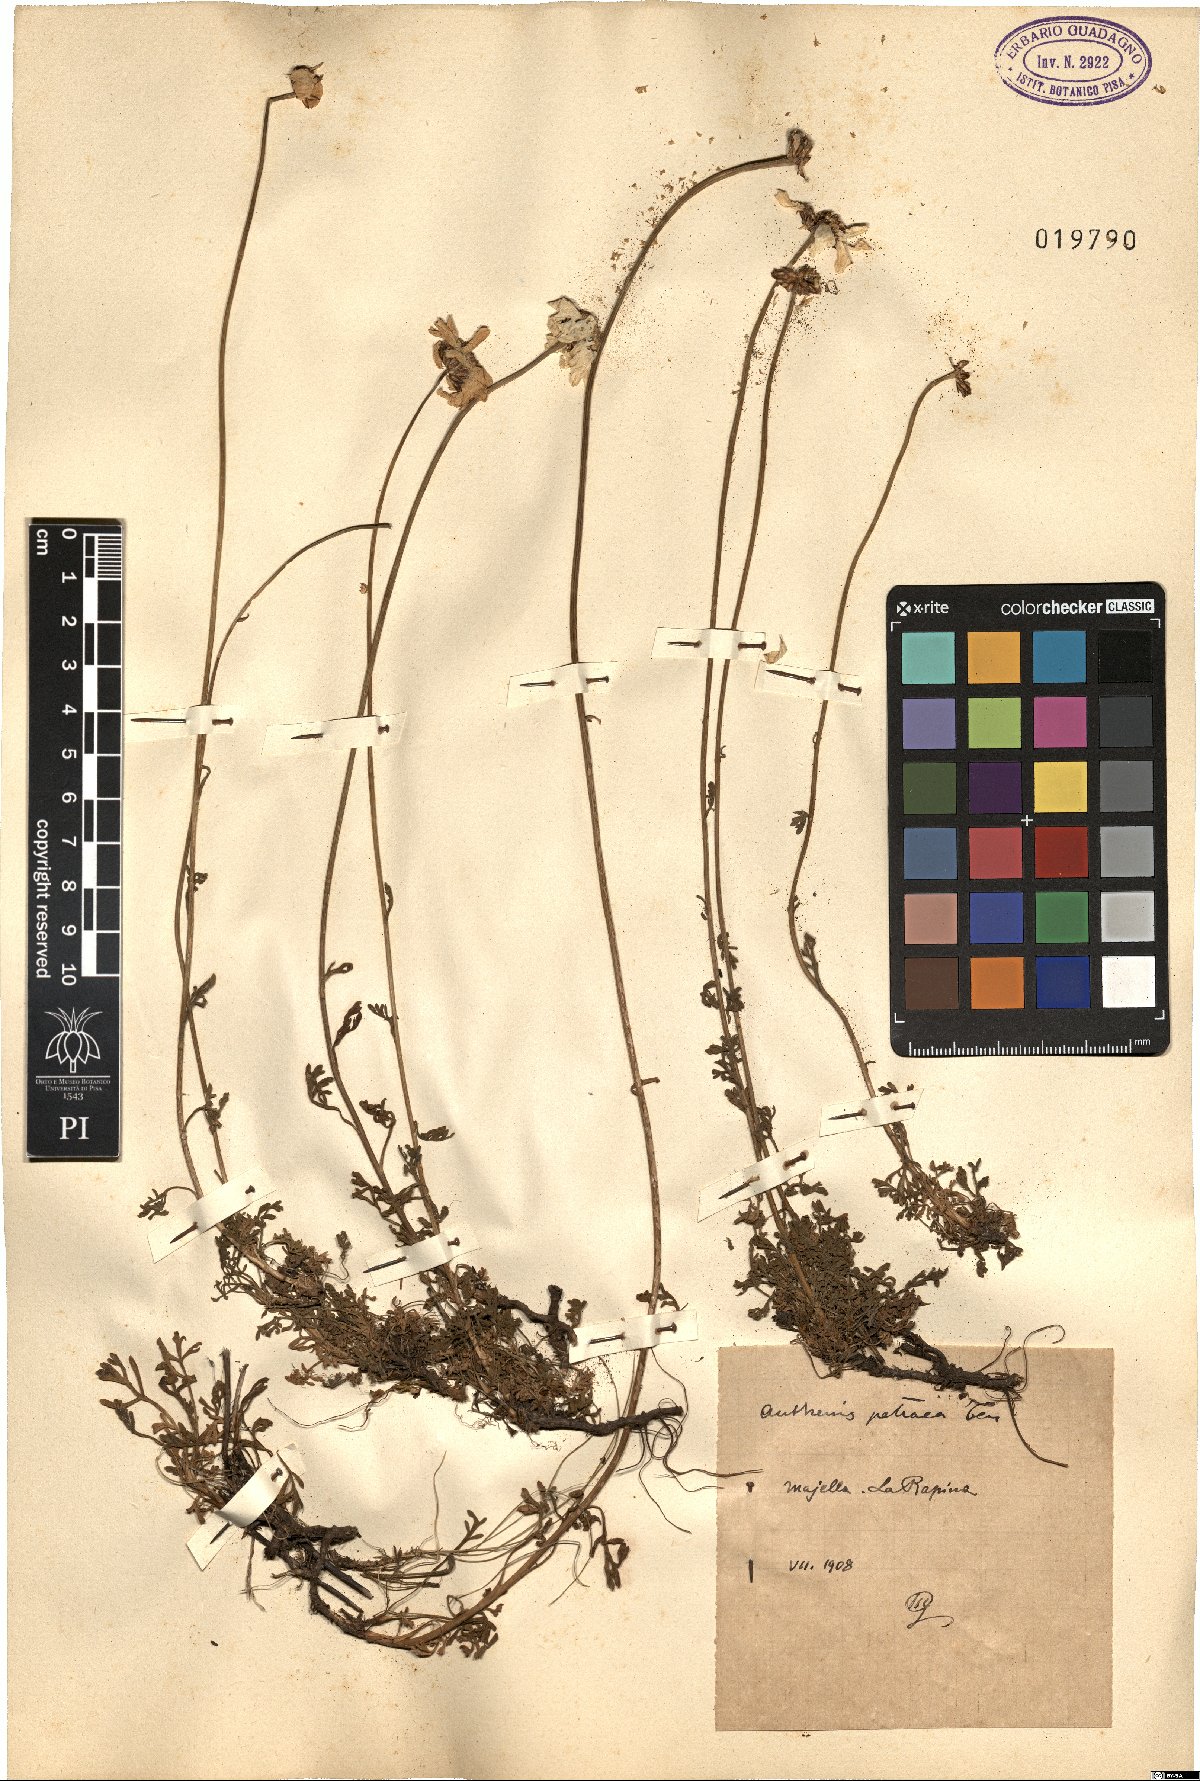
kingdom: Plantae
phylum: Tracheophyta
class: Magnoliopsida
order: Asterales
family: Asteraceae
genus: Anthemis
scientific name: Anthemis cretica
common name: Mountain dog-daisy
